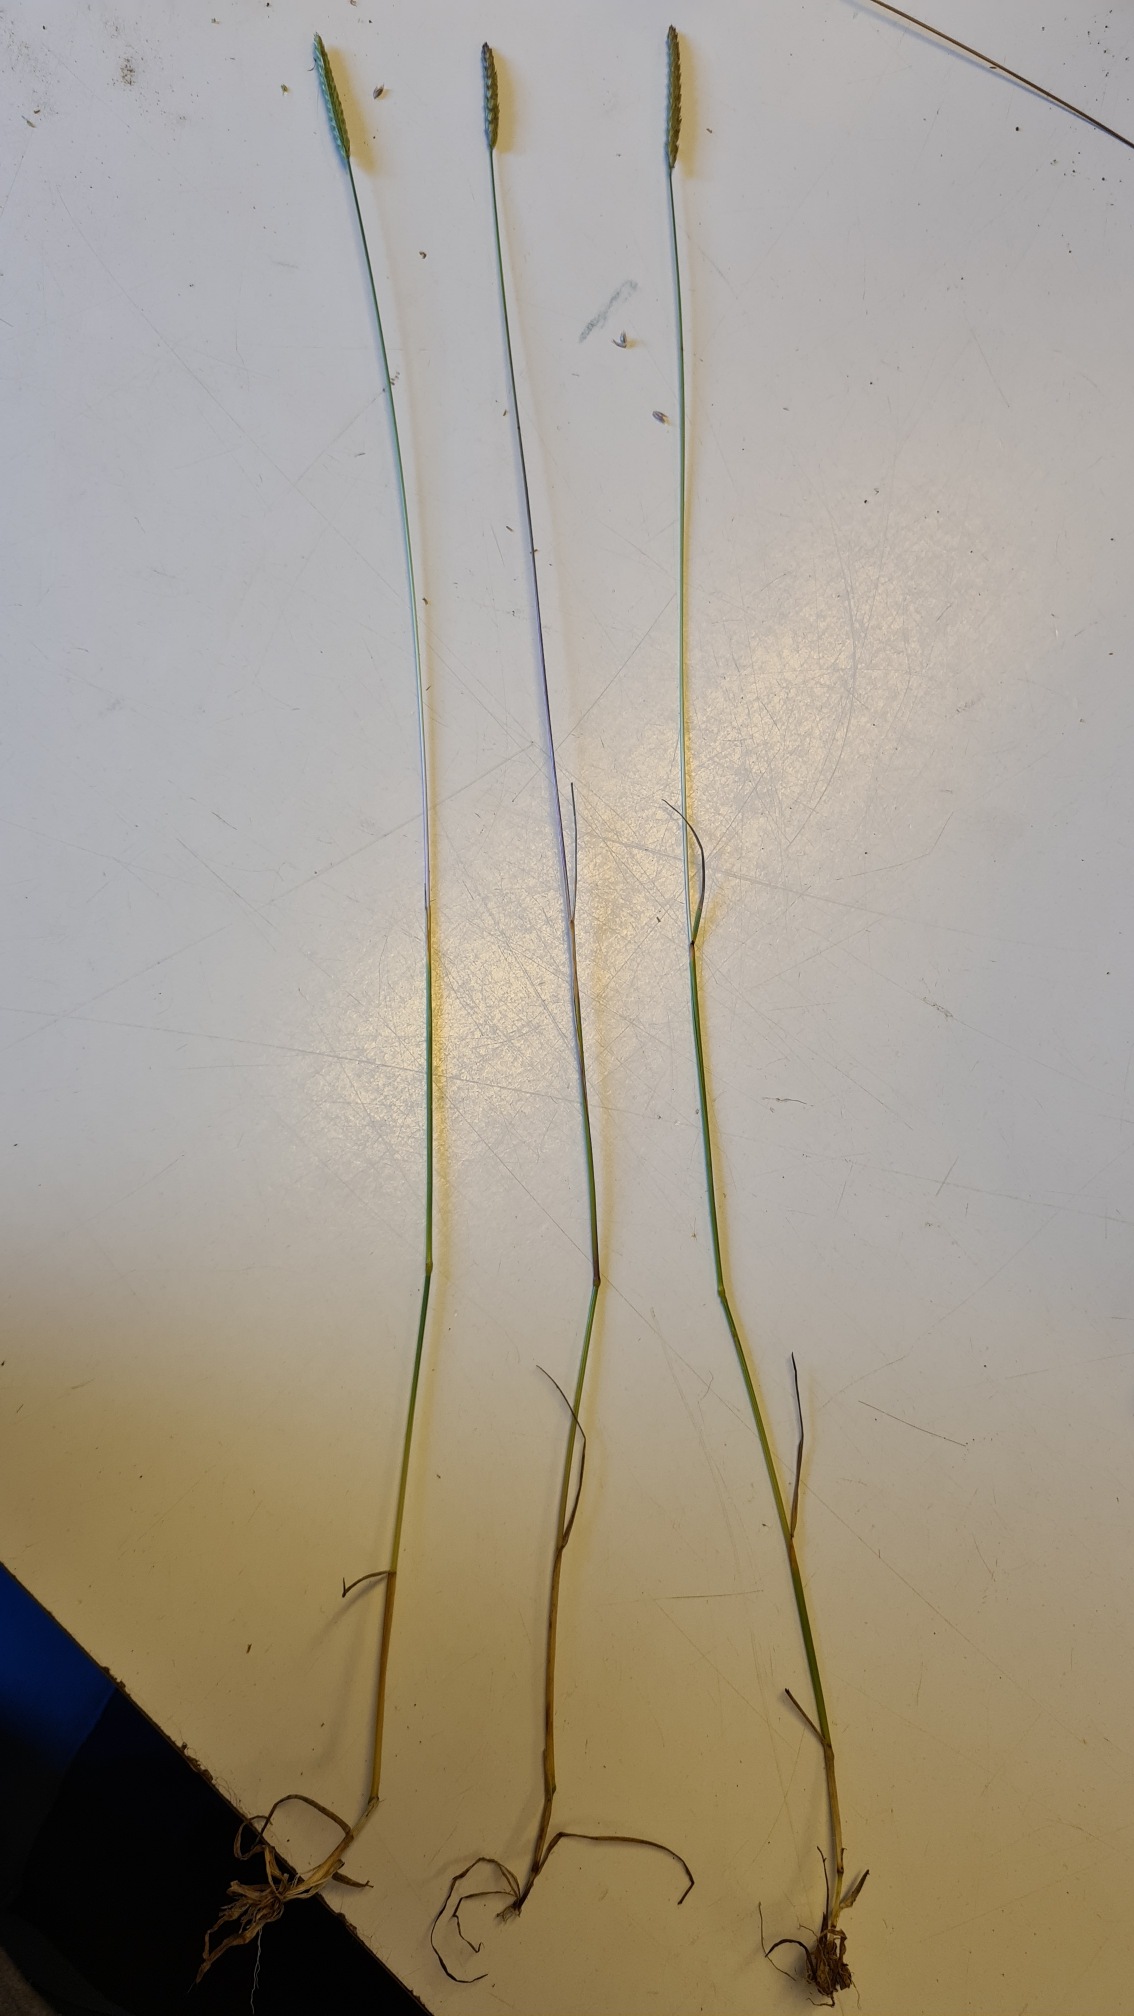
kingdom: Plantae
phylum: Tracheophyta
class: Liliopsida
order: Poales
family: Poaceae
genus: Cynosurus
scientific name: Cynosurus cristatus
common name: Kamgræs
